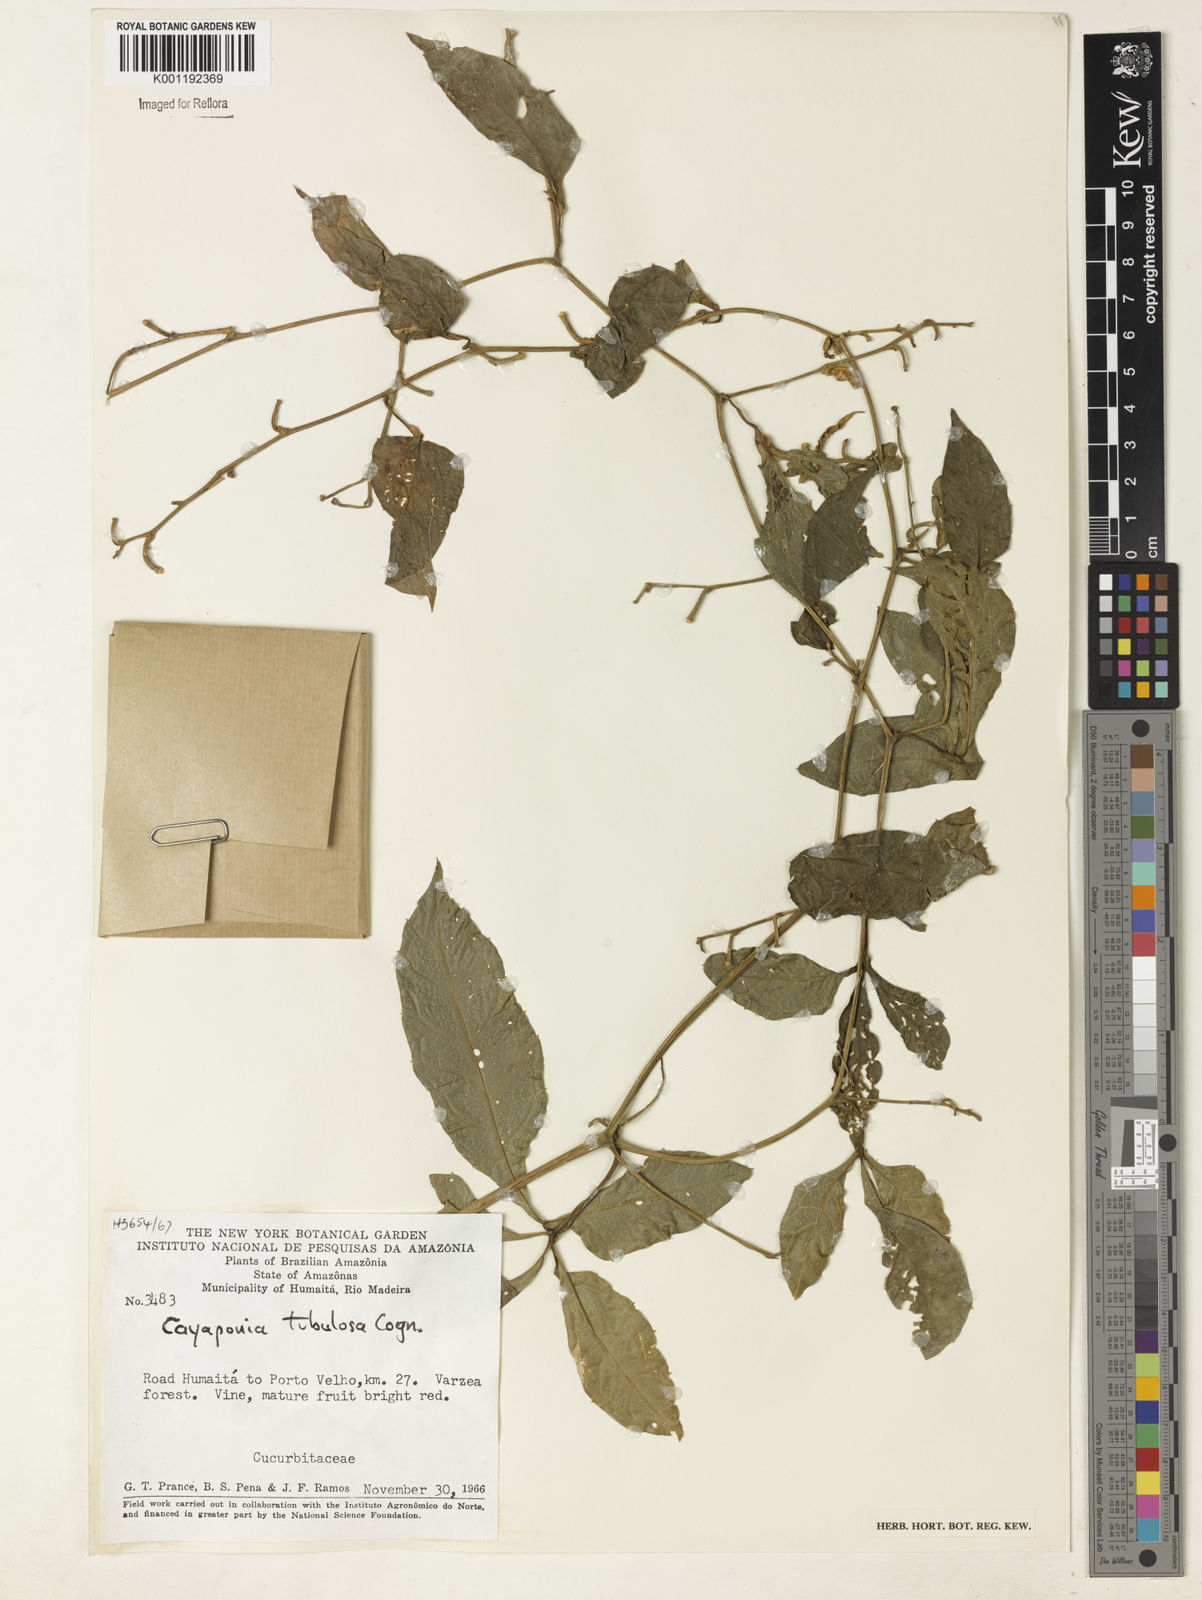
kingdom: Plantae
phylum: Tracheophyta
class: Magnoliopsida
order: Cucurbitales
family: Cucurbitaceae
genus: Cayaponia
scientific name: Cayaponia tubulosa
